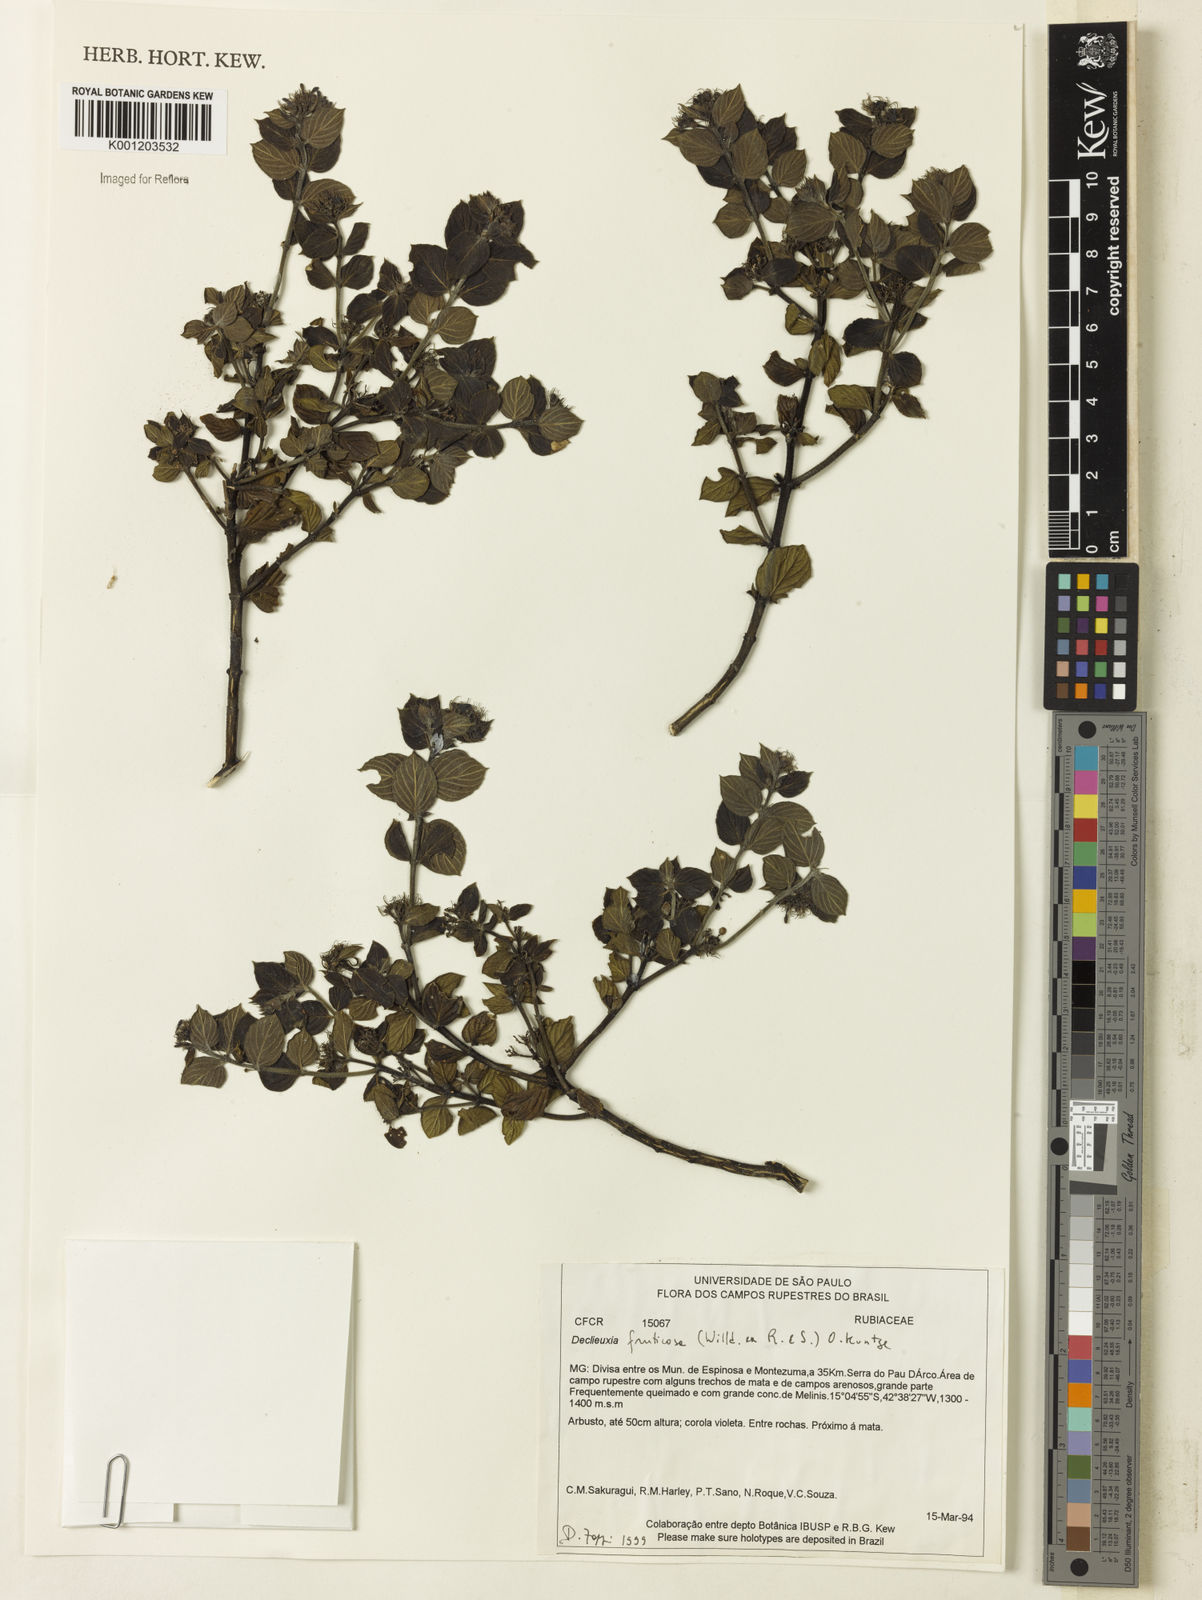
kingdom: Plantae
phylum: Tracheophyta
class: Magnoliopsida
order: Gentianales
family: Rubiaceae
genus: Declieuxia
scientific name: Declieuxia fruticosa
